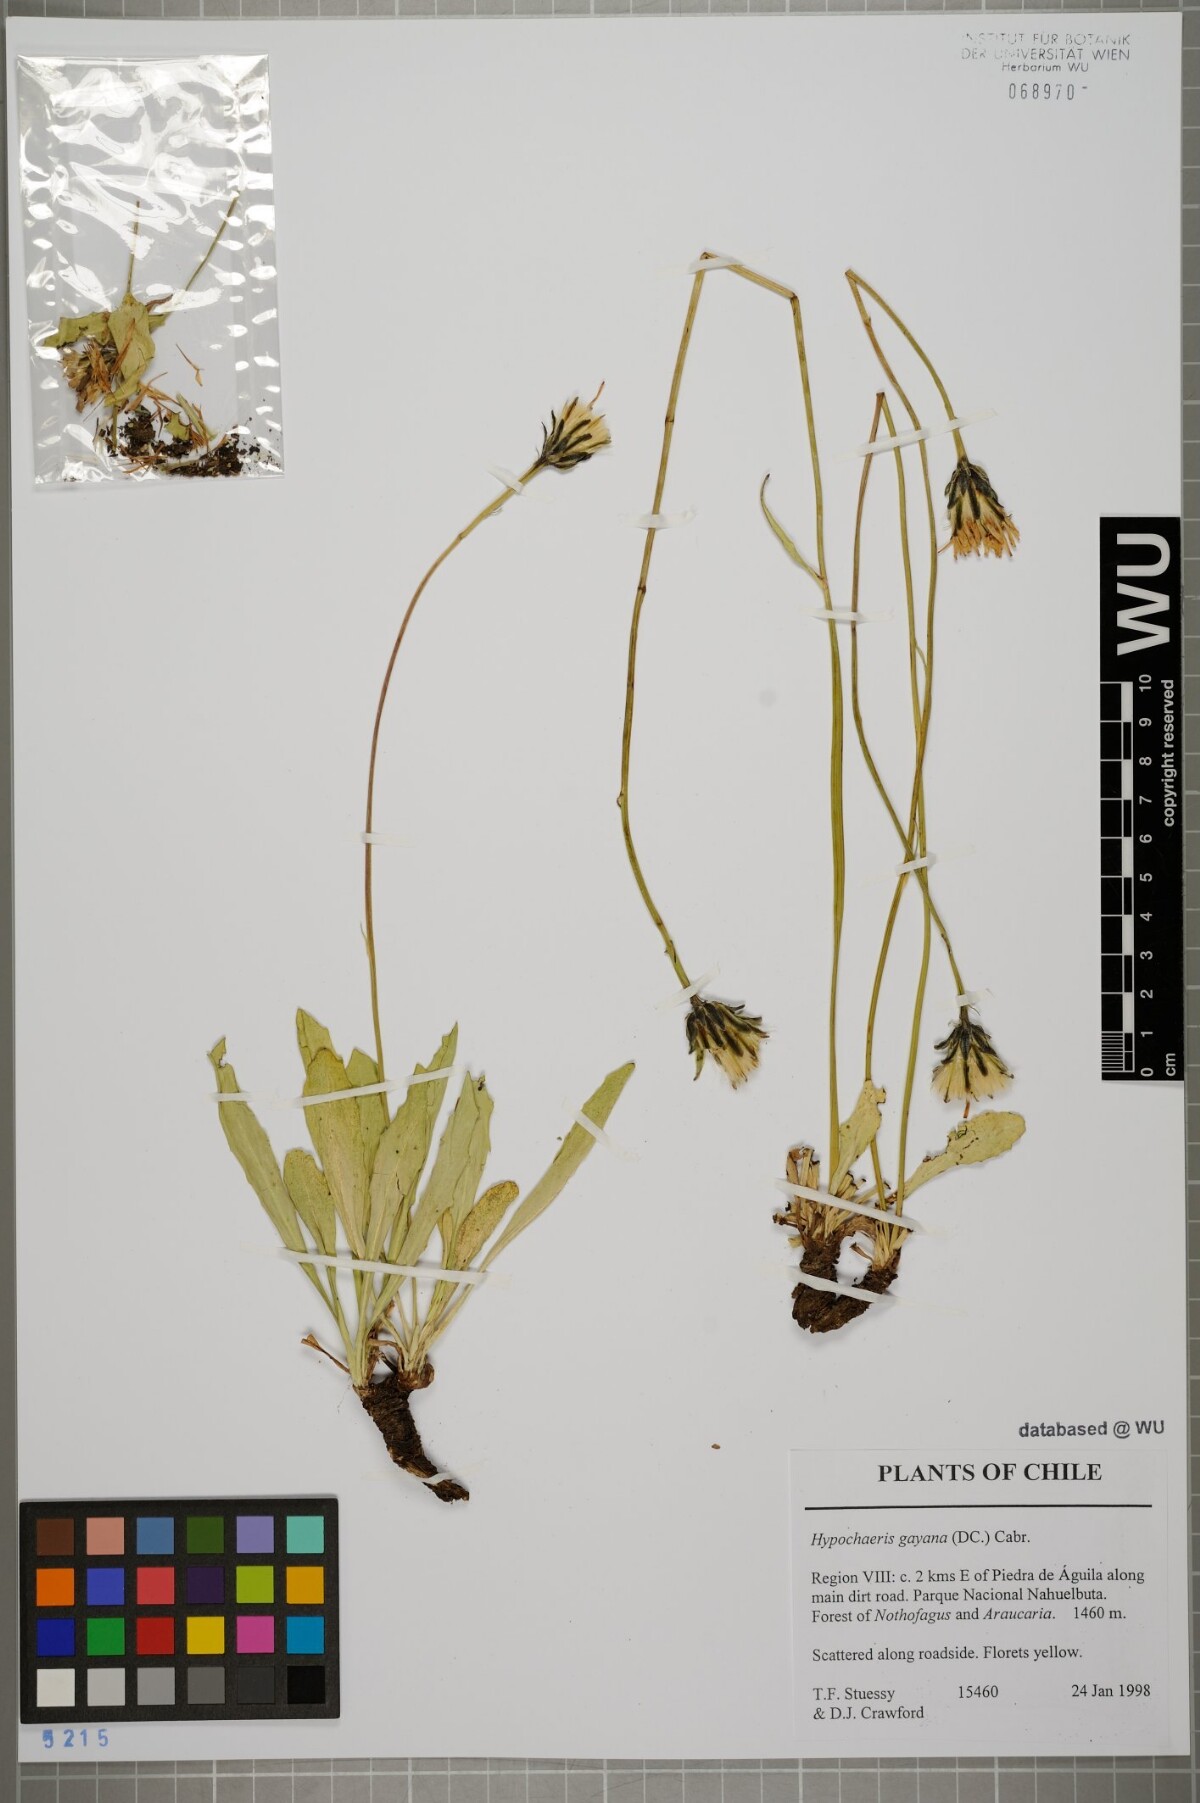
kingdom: Plantae
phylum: Tracheophyta
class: Magnoliopsida
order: Asterales
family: Asteraceae
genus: Hypochaeris
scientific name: Hypochaeris melanolepis
